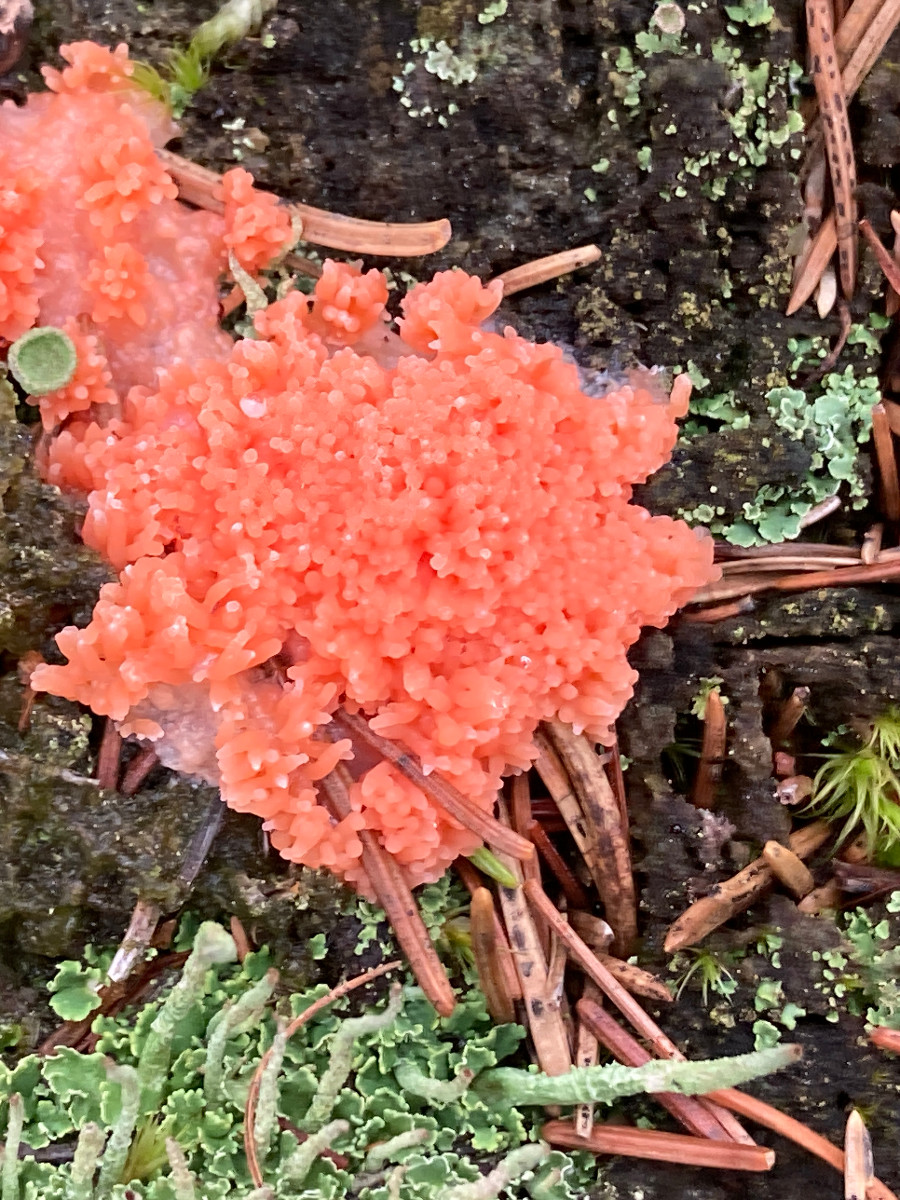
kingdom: Protozoa
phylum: Mycetozoa
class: Myxomycetes
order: Cribrariales
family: Tubiferaceae
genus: Tubifera
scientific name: Tubifera ferruginosa
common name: kanel-støvrør
